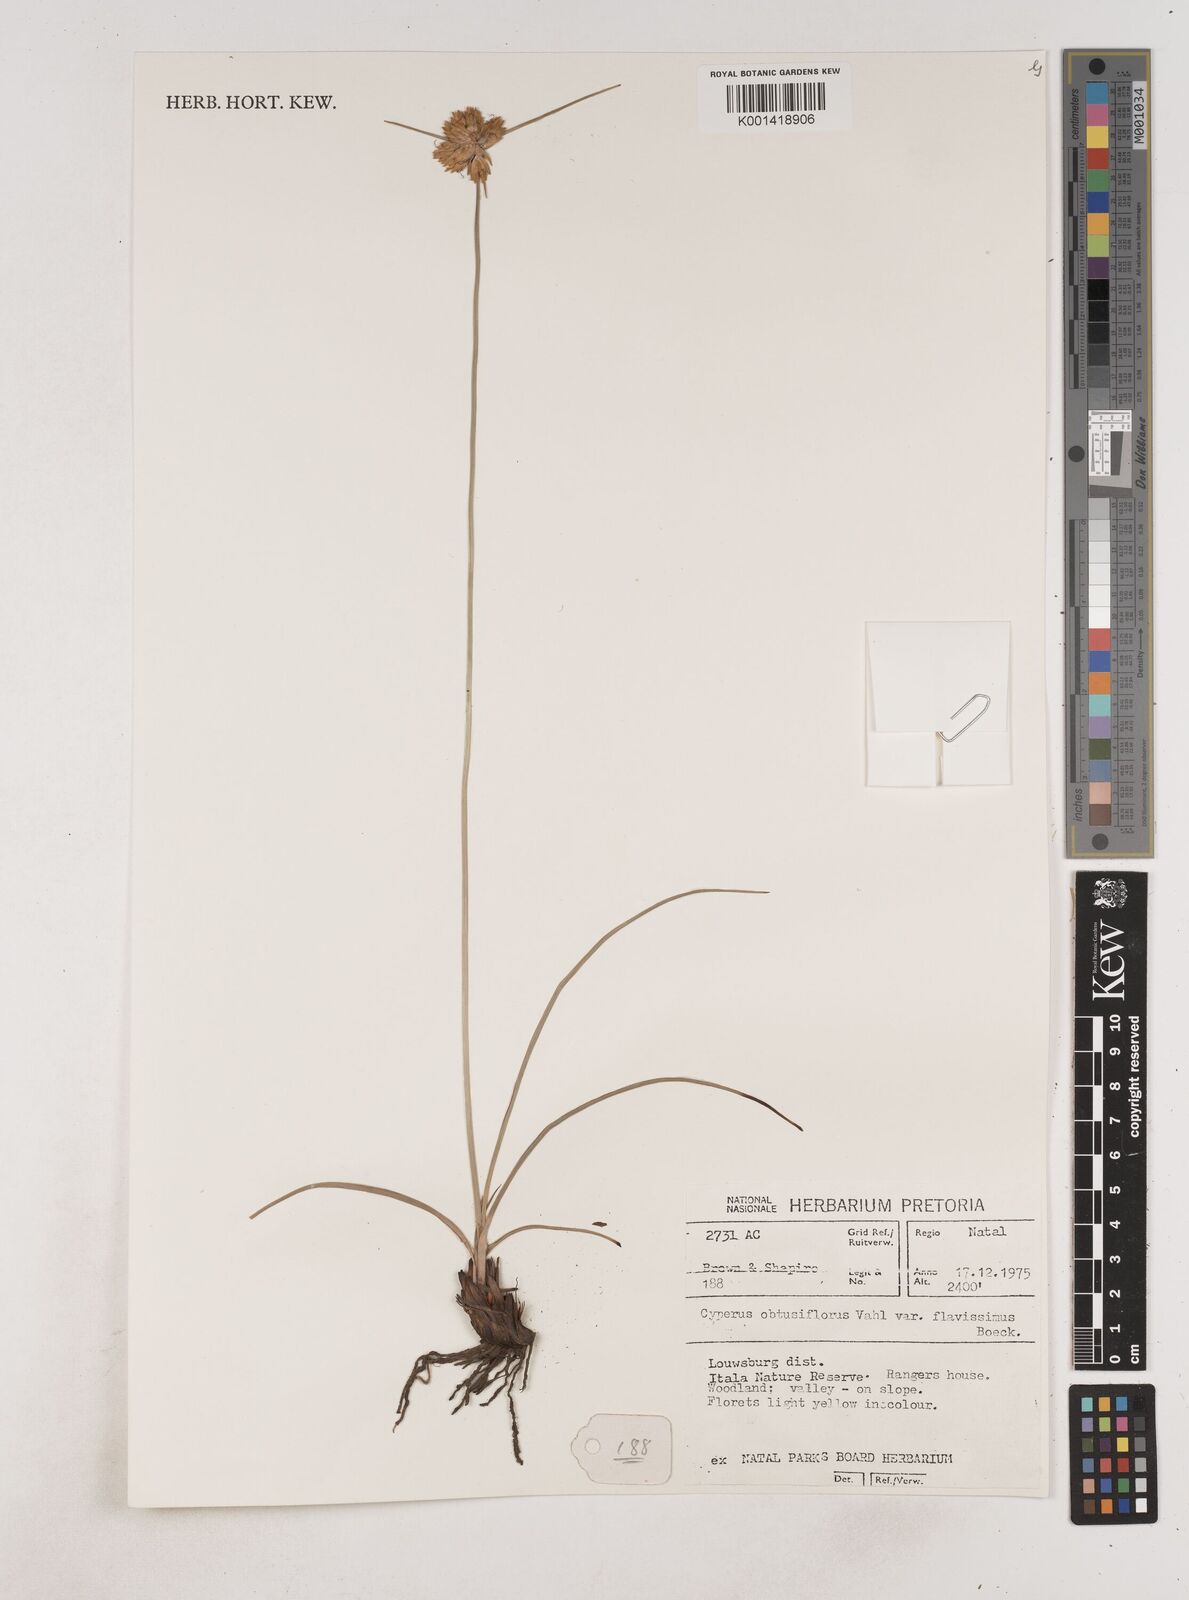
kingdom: Plantae
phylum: Tracheophyta
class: Liliopsida
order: Poales
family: Cyperaceae
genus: Cyperus
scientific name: Cyperus sphaerocephalus
